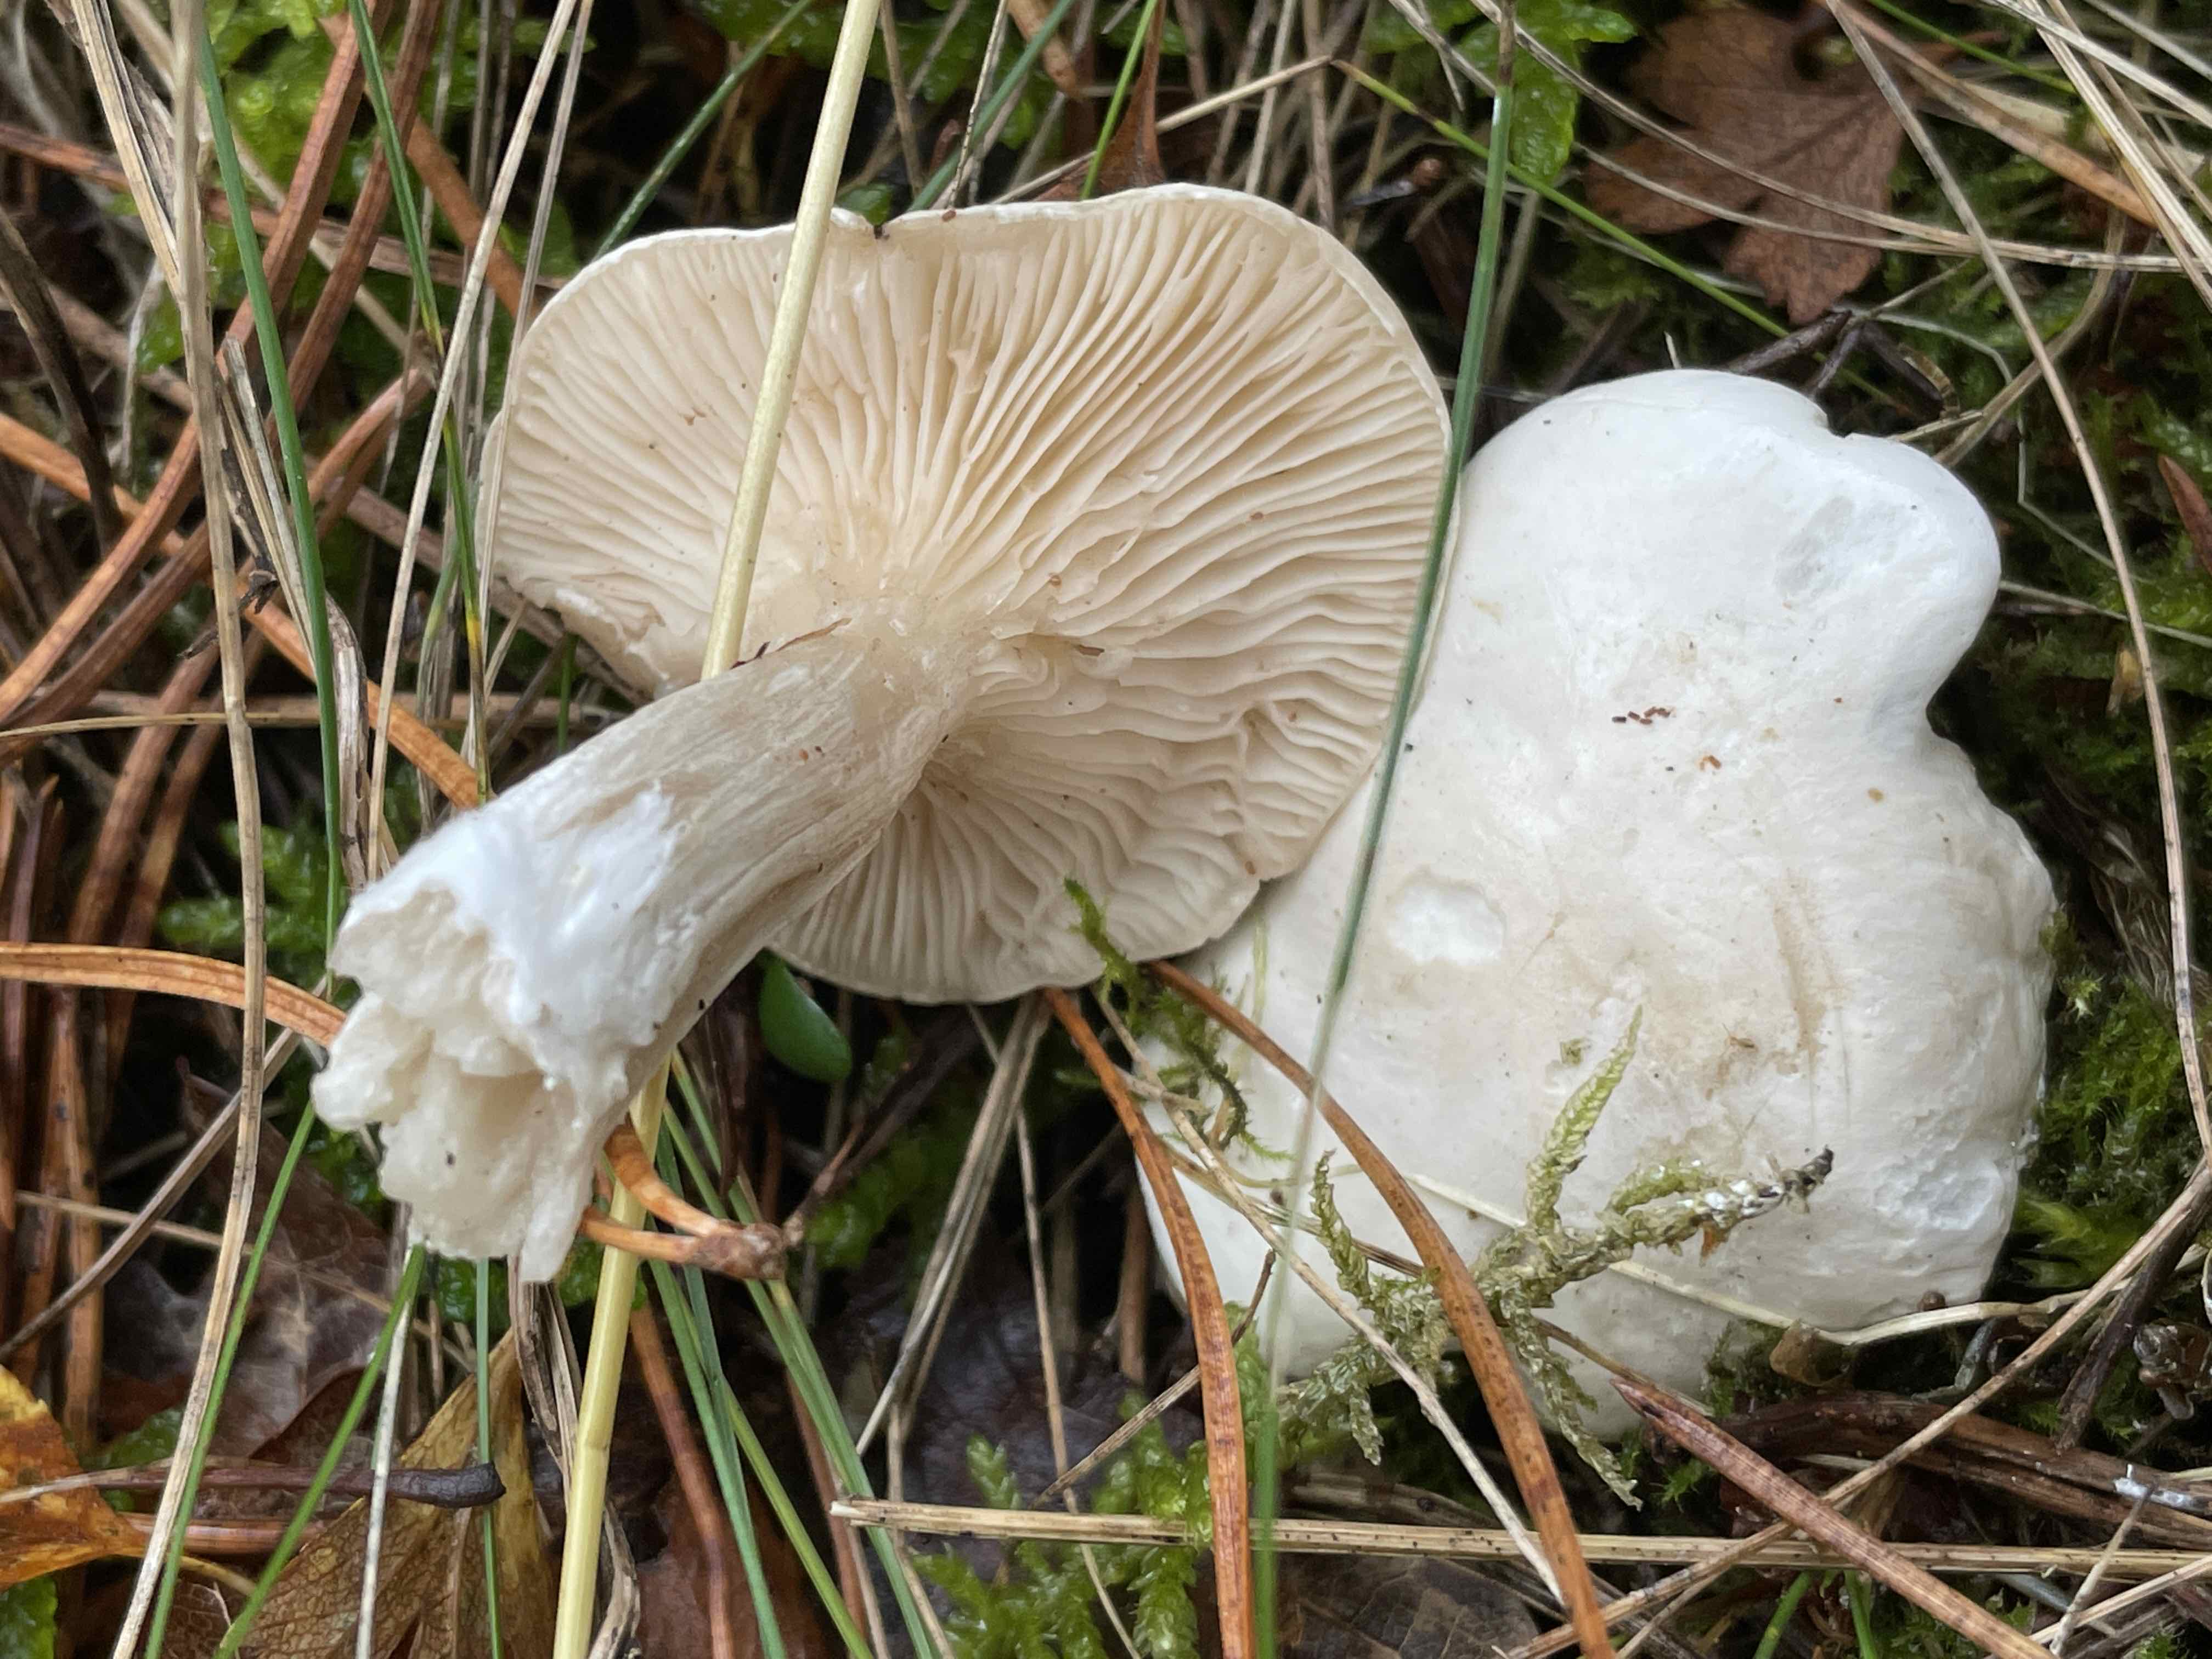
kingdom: Fungi
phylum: Basidiomycota
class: Agaricomycetes
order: Agaricales
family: Entolomataceae
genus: Clitopilus
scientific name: Clitopilus prunulus
